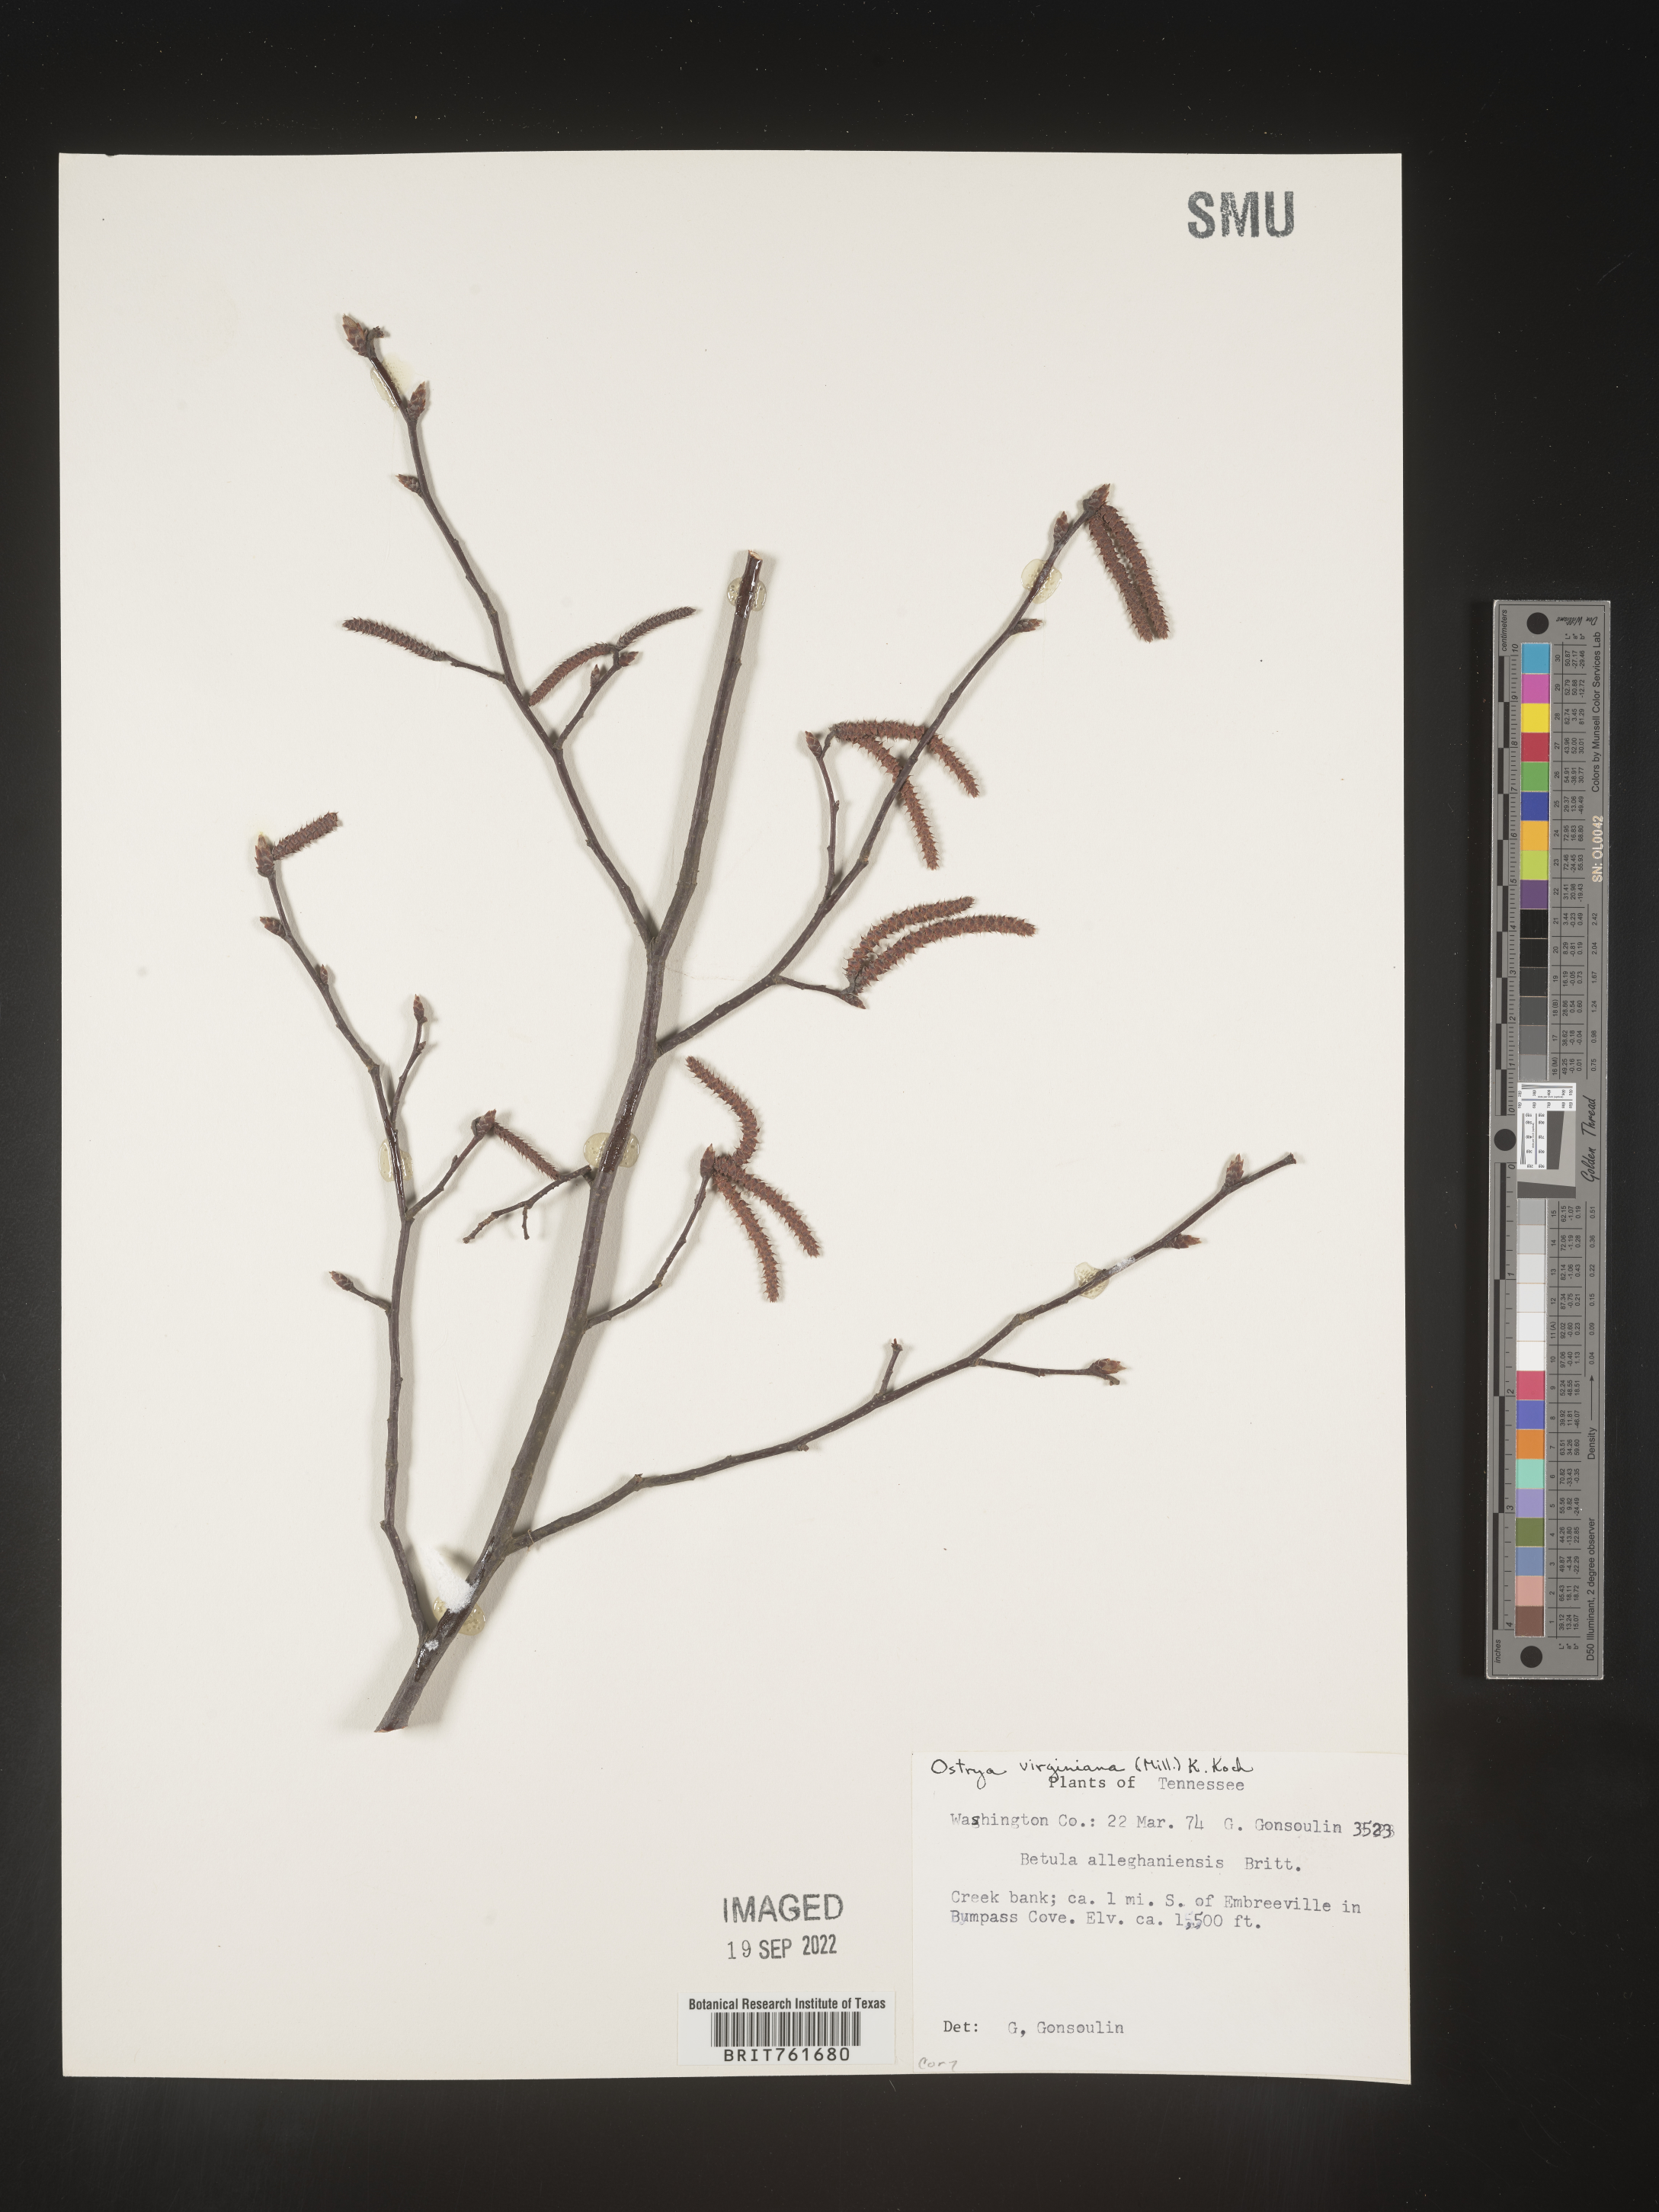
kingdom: Plantae
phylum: Tracheophyta
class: Magnoliopsida
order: Fagales
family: Betulaceae
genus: Betula
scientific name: Betula alleghaniensis
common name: Yellow birch
